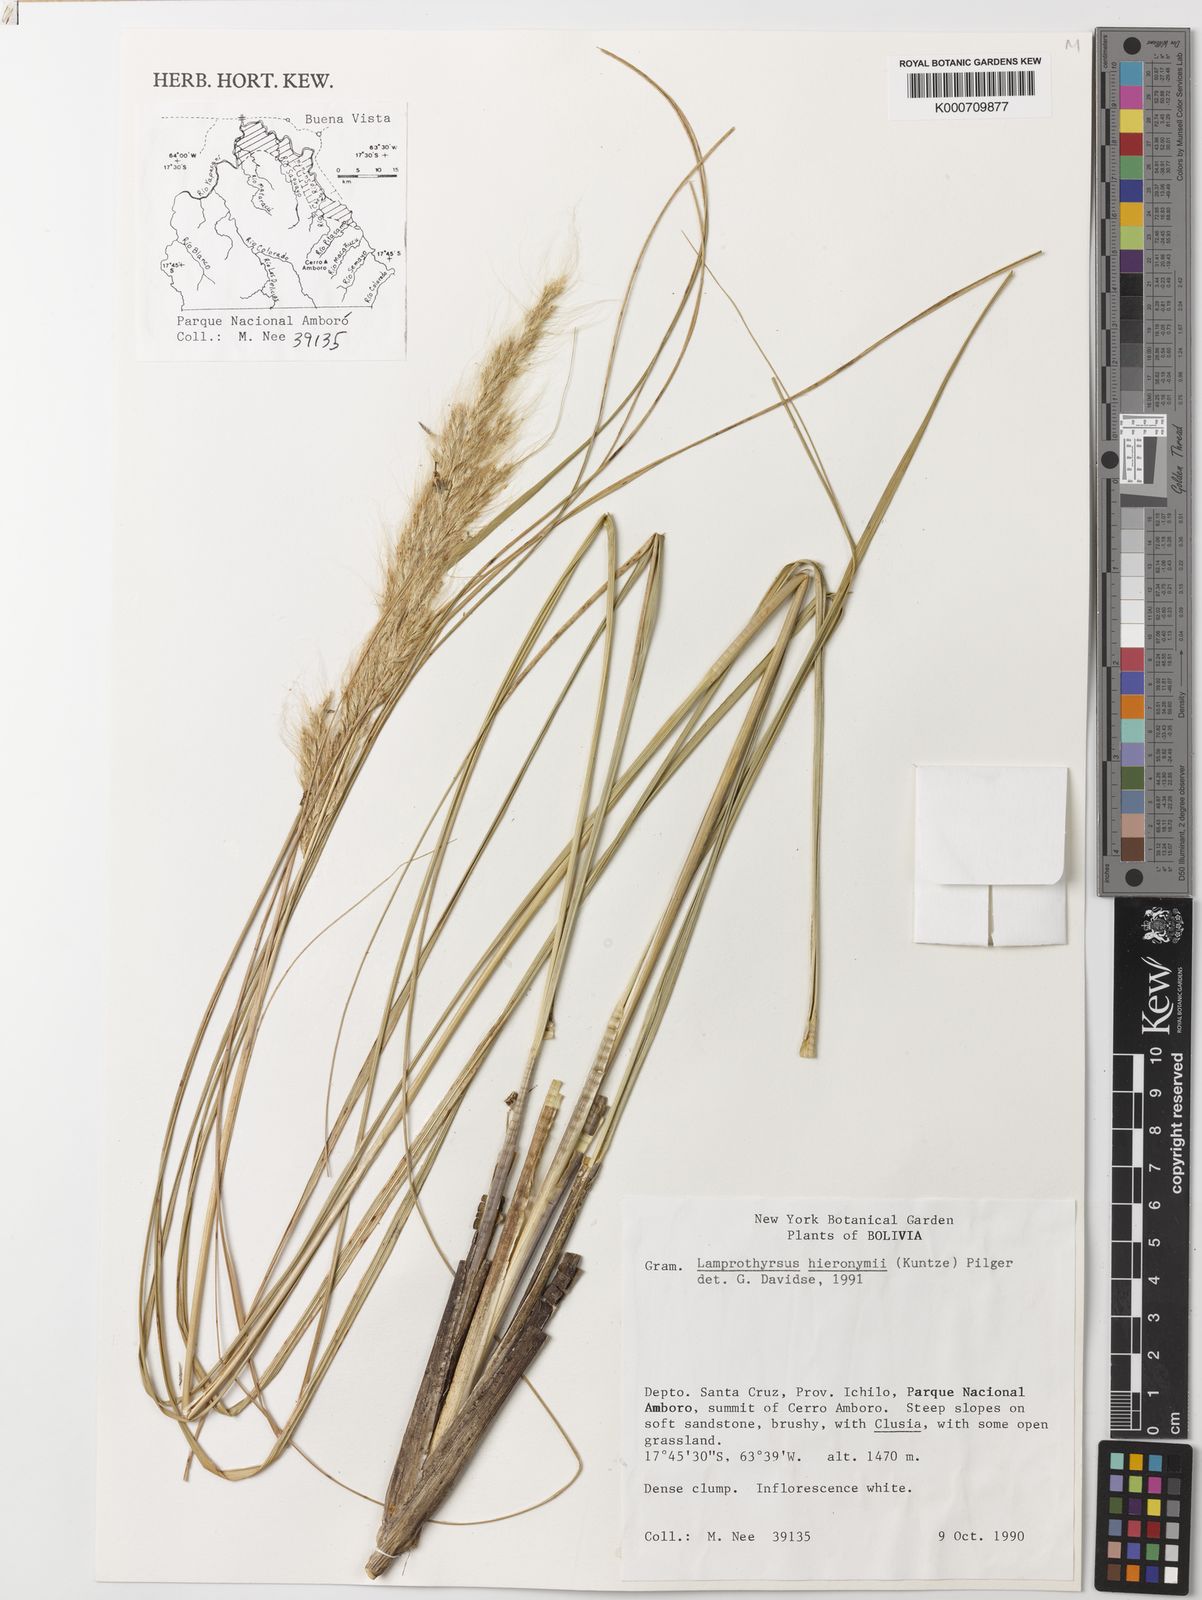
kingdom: Plantae
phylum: Tracheophyta
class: Liliopsida
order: Poales
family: Poaceae
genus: Cortaderia
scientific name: Cortaderia hieronymi
